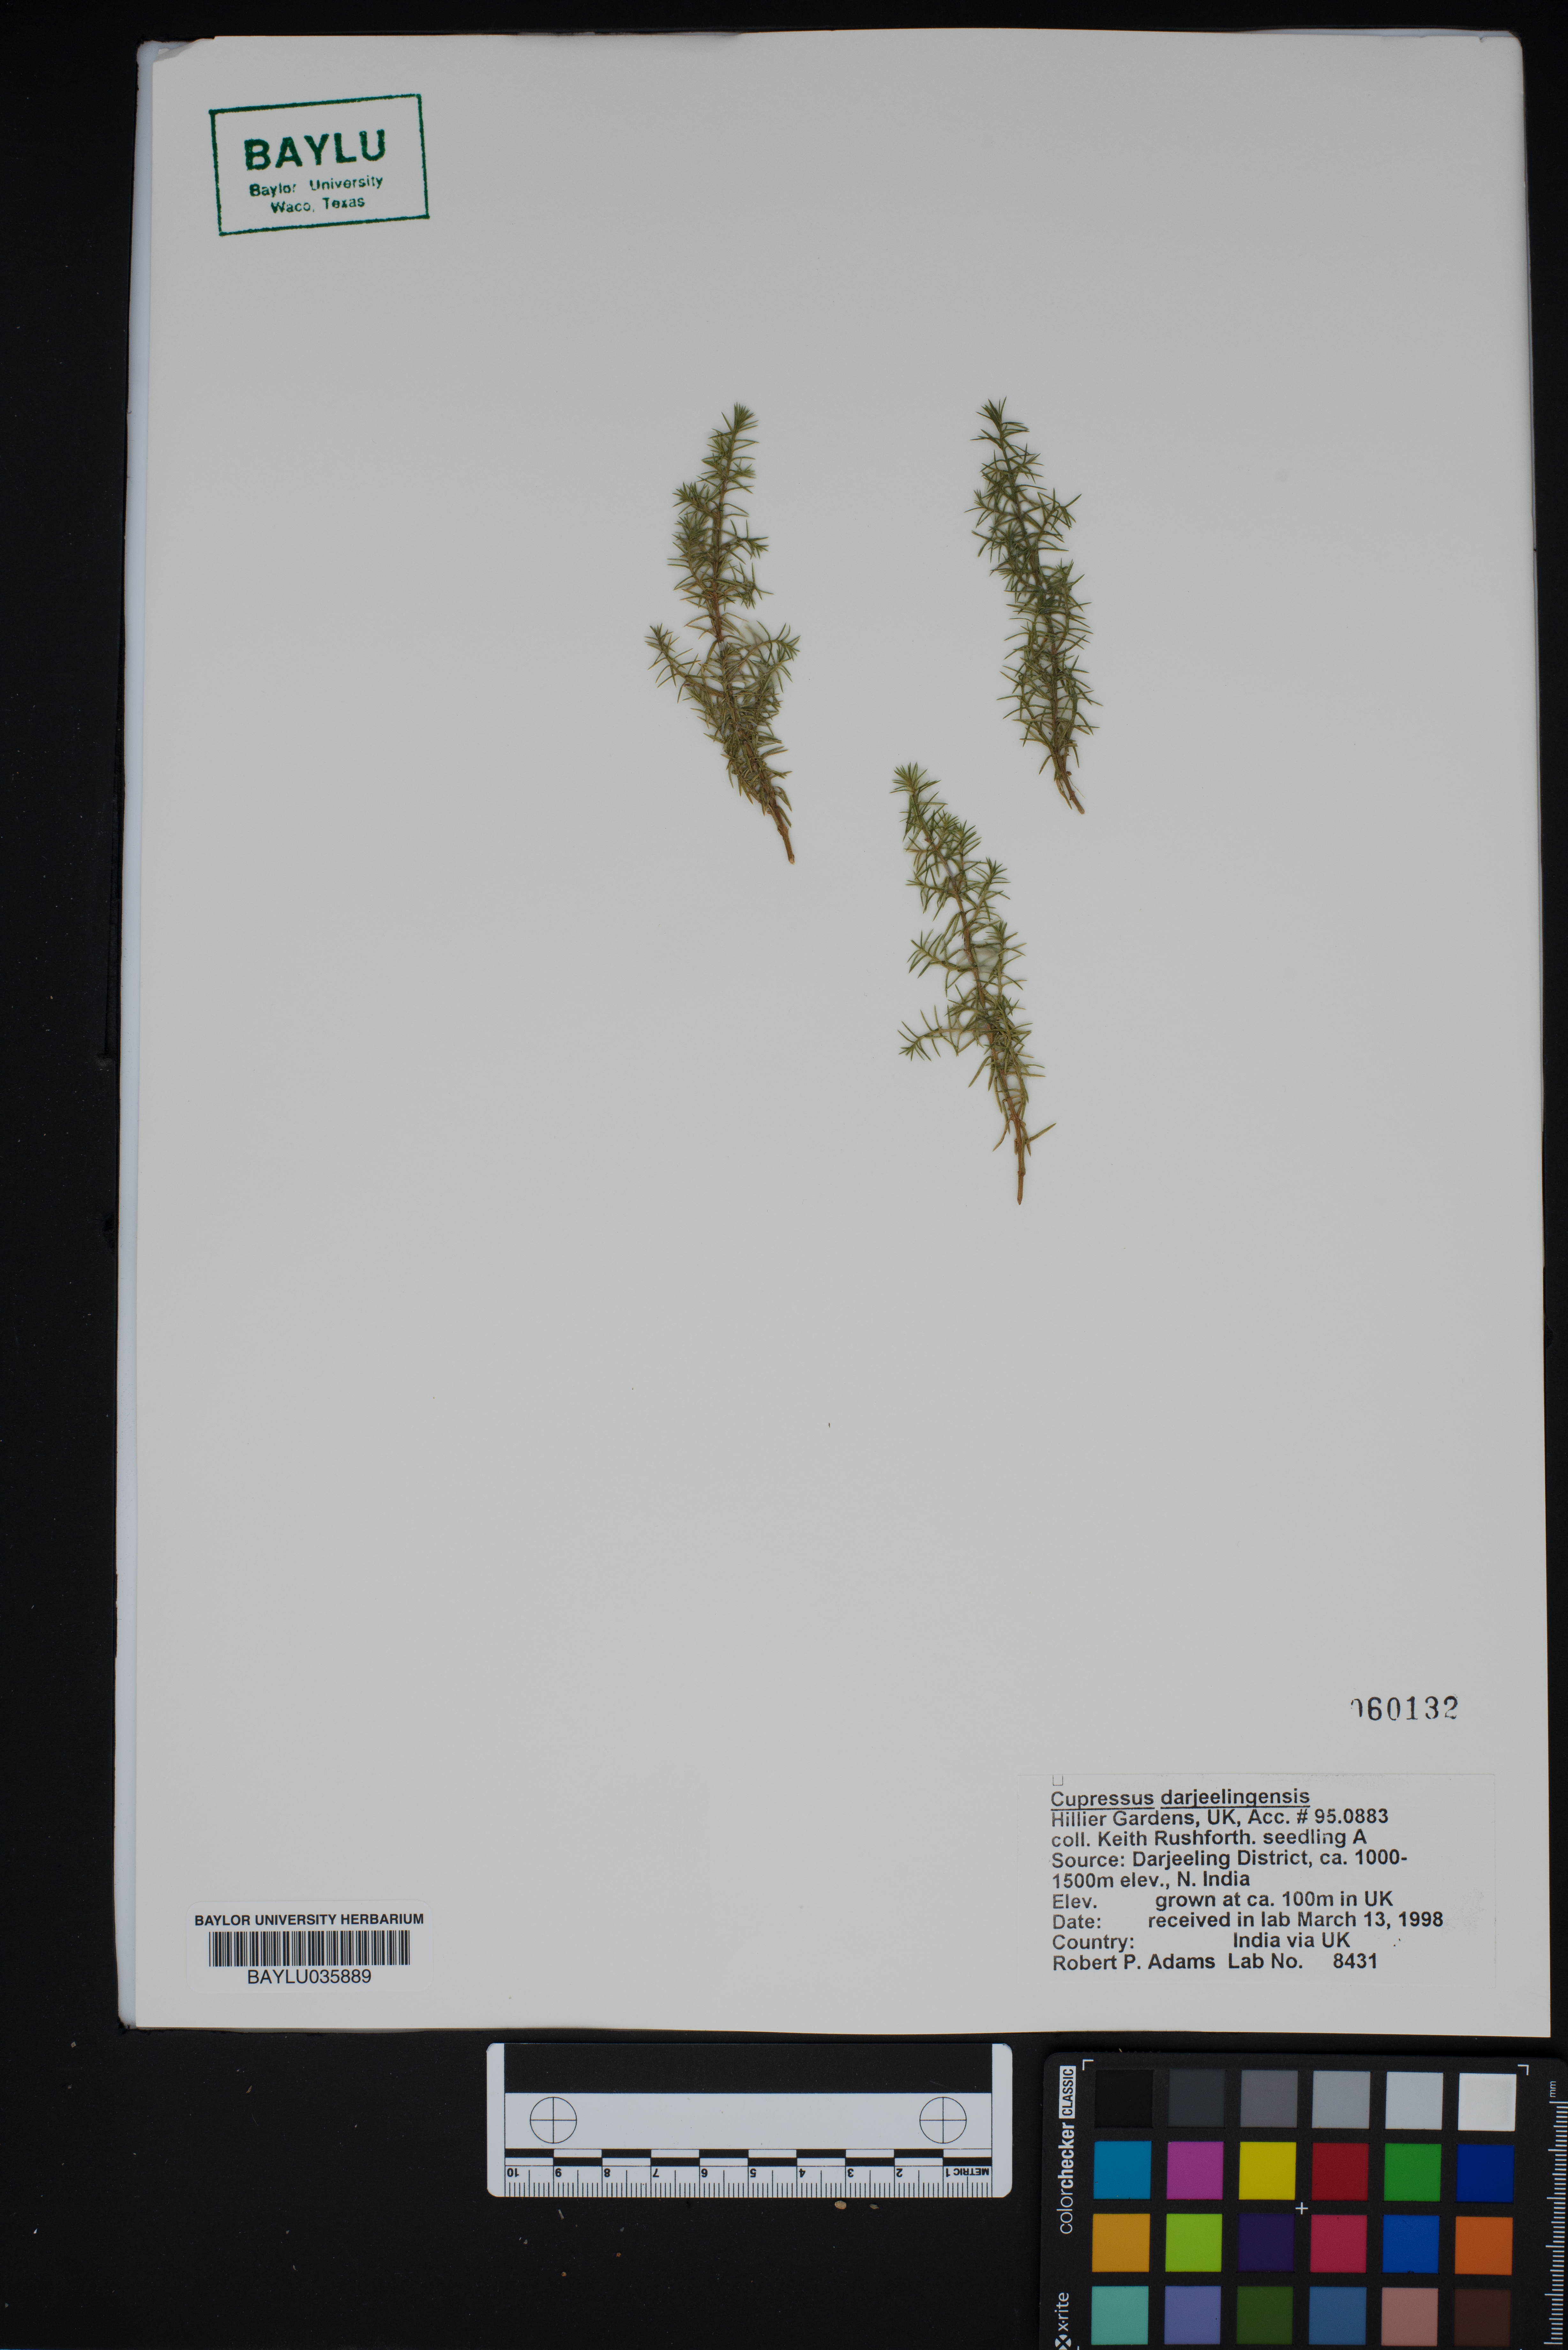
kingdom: Plantae
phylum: Tracheophyta
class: Pinopsida
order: Pinales
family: Cupressaceae
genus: Cupressus
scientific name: Cupressus cashmeriana
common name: Bhutan cypress
